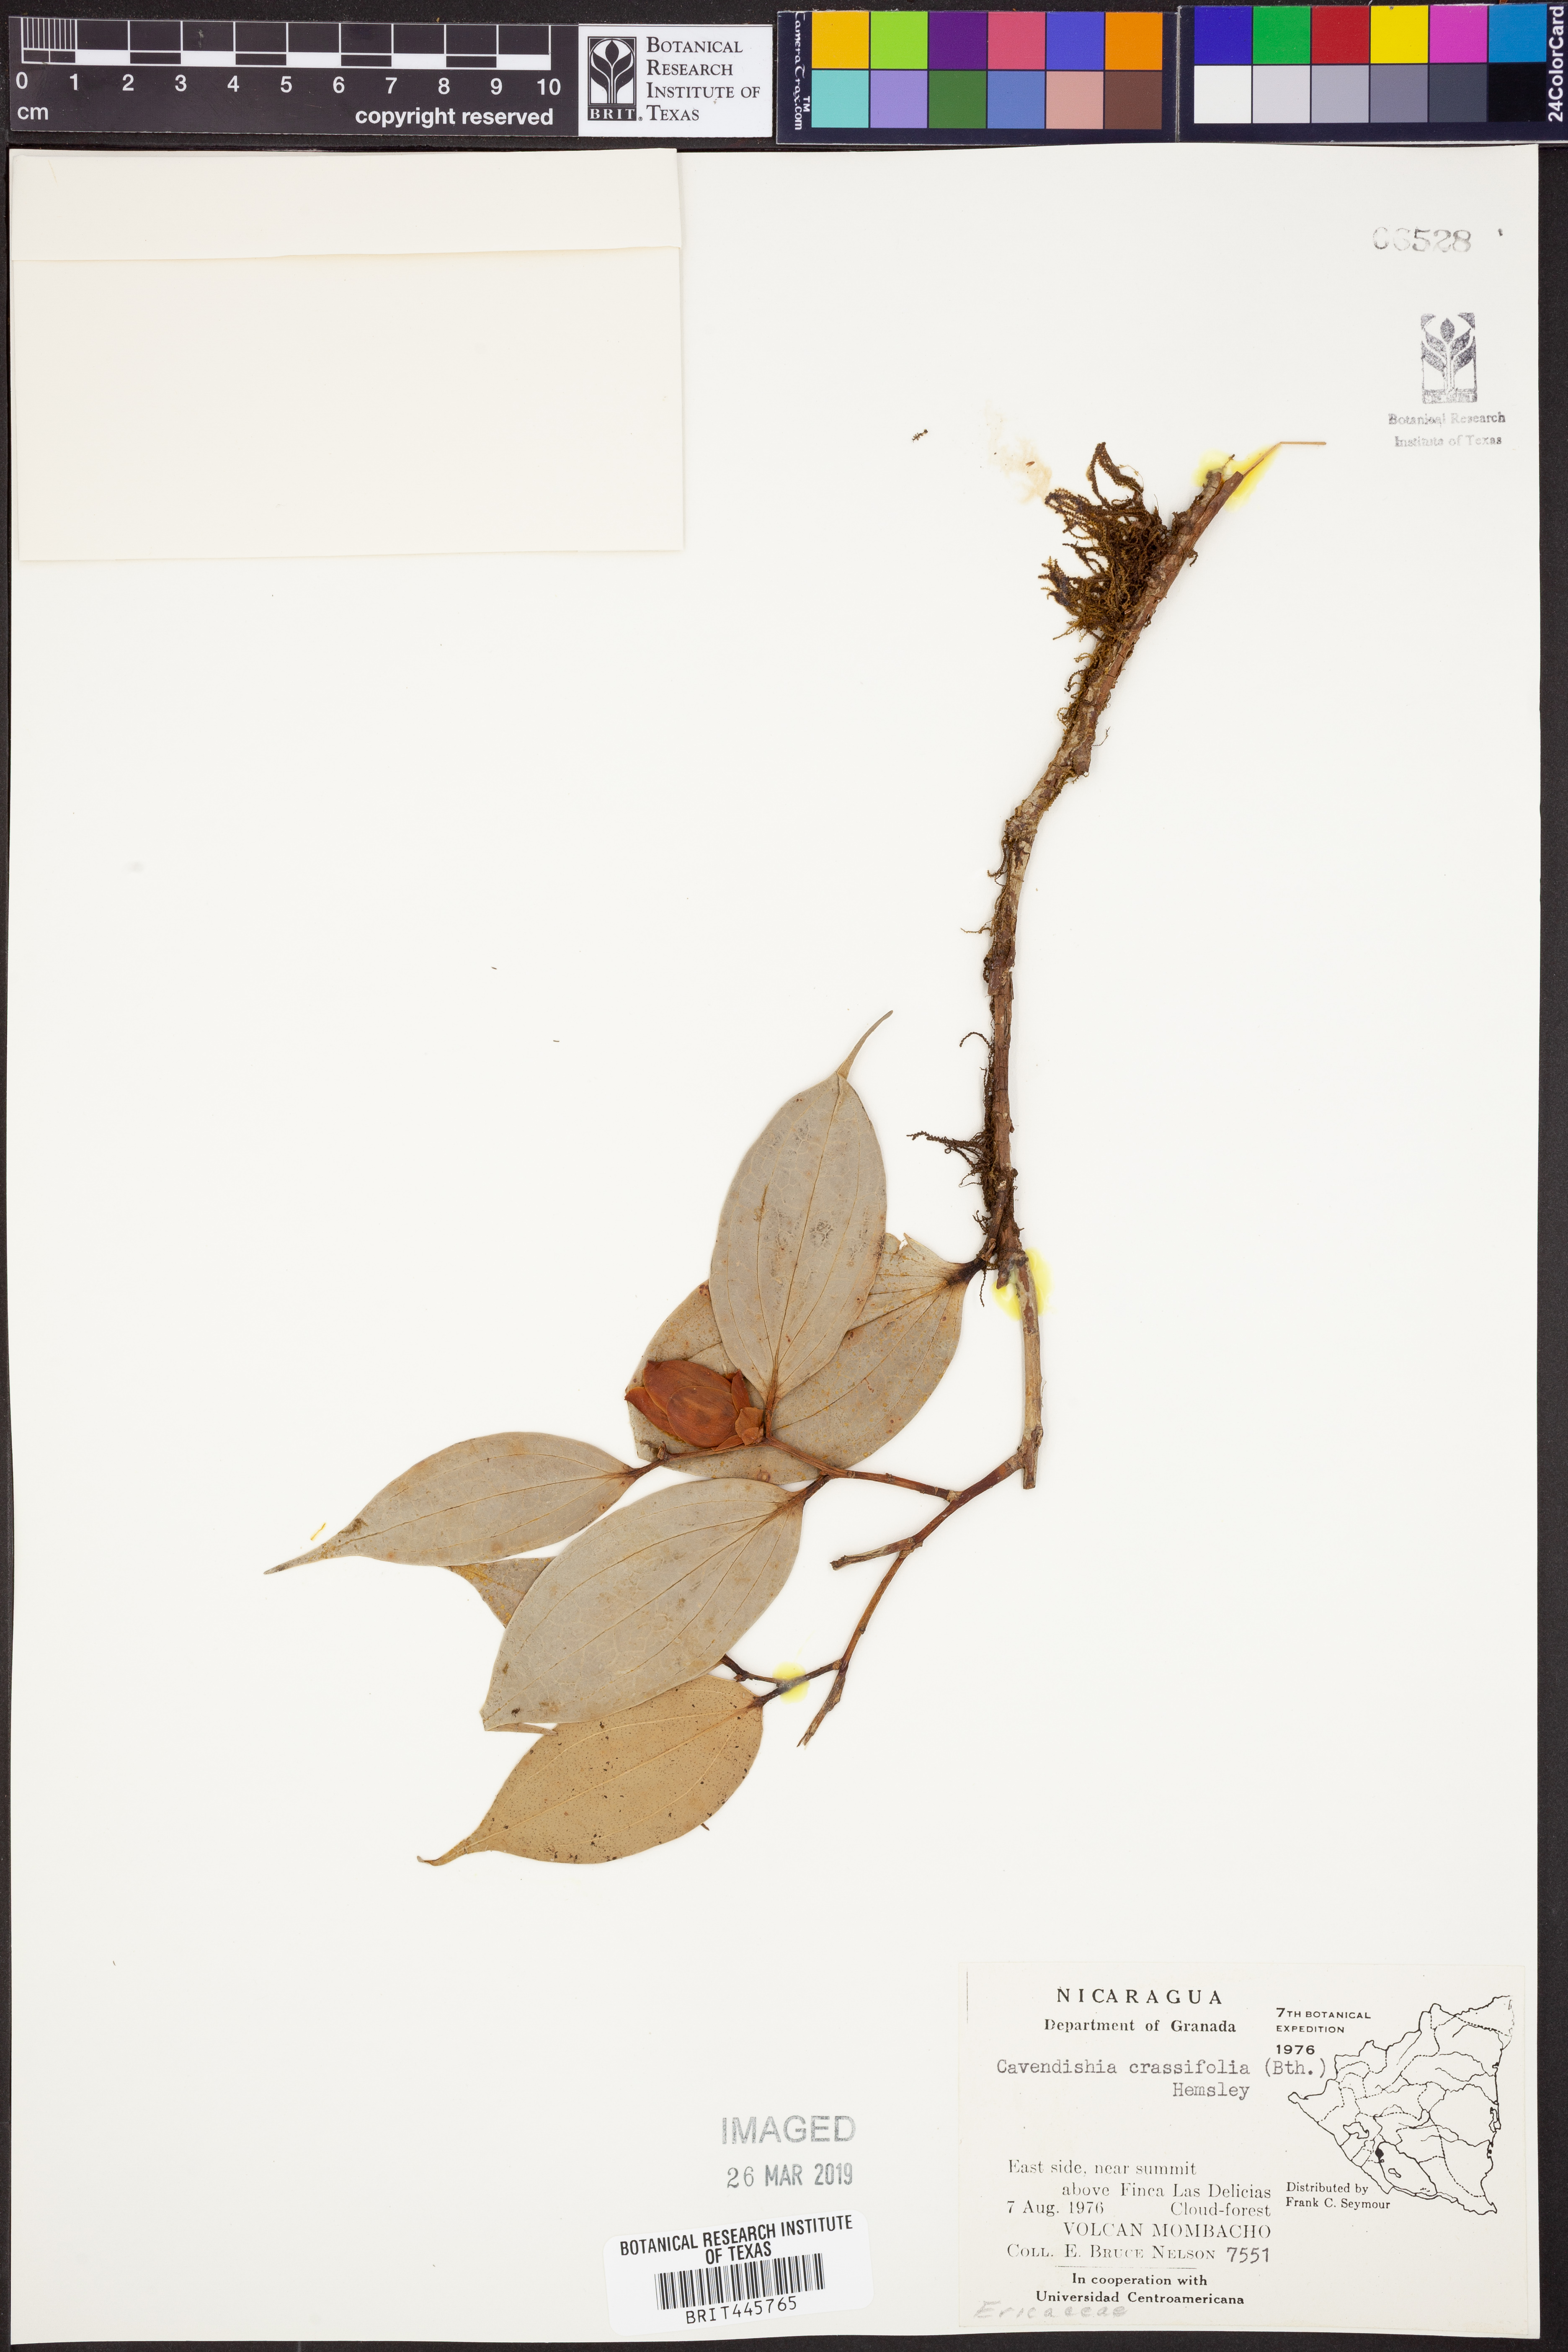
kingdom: Plantae
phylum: Tracheophyta
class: Magnoliopsida
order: Ericales
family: Ericaceae
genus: Cavendishia
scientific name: Cavendishia bracteata
